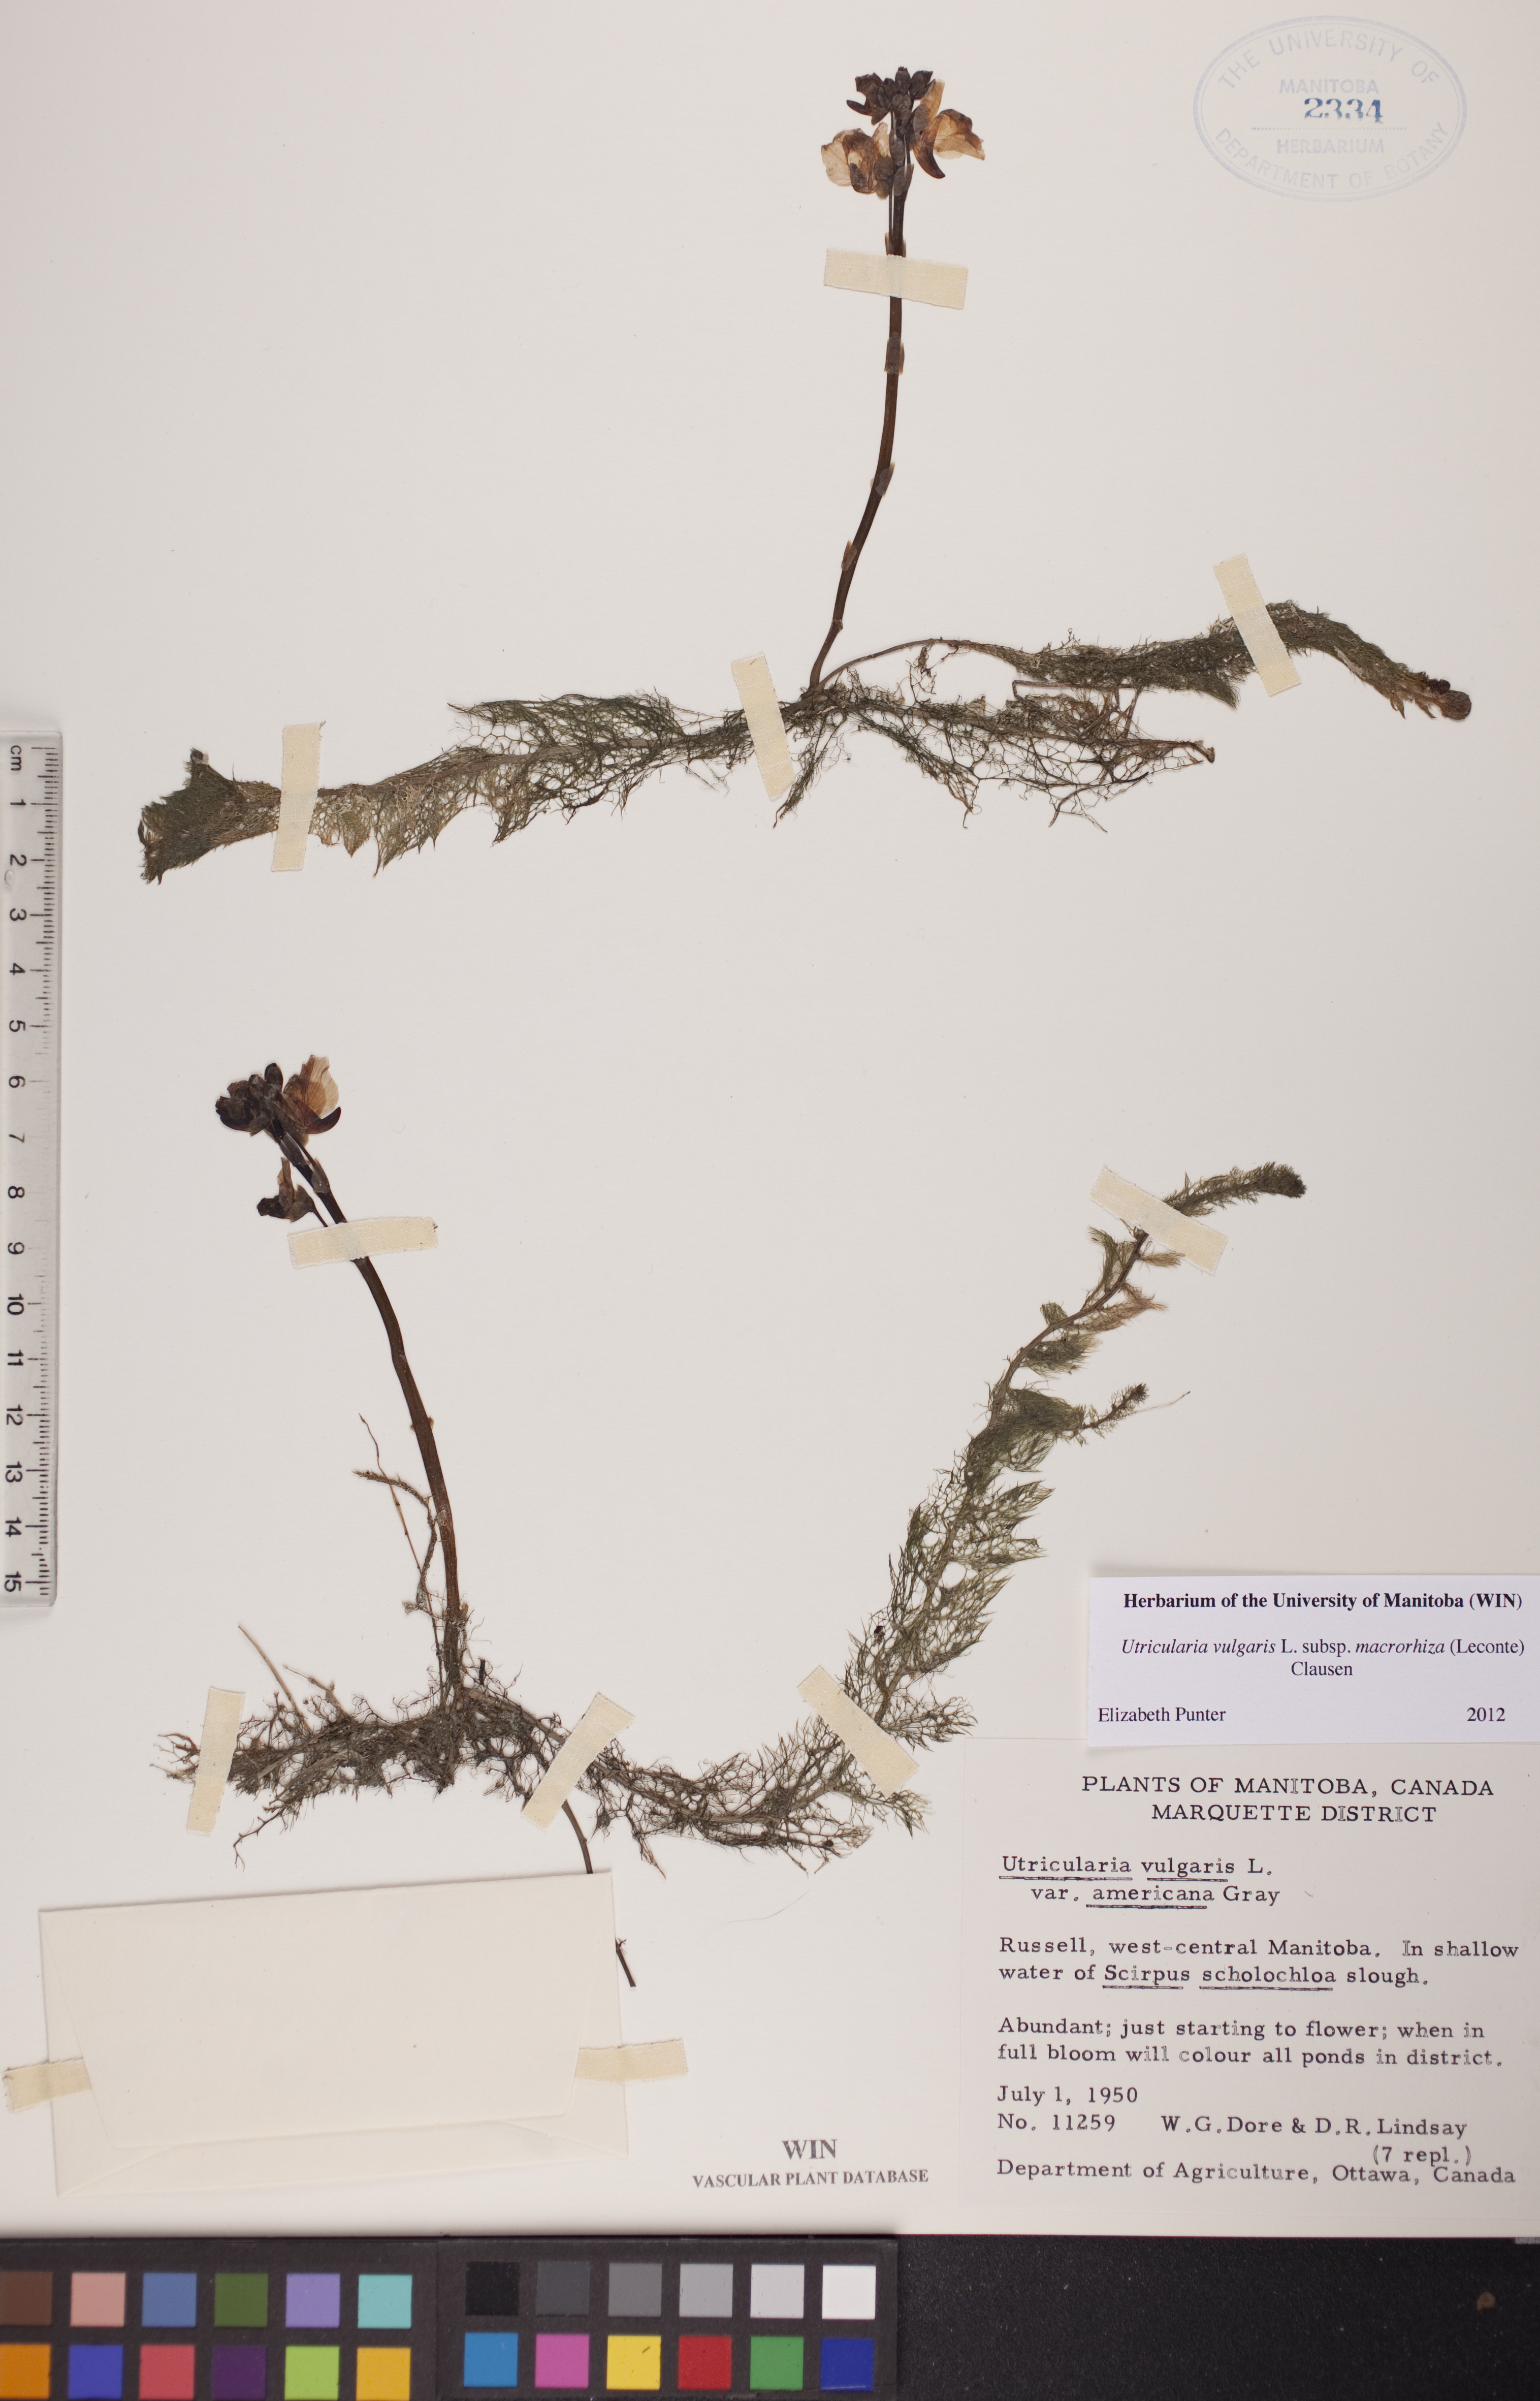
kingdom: Plantae
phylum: Tracheophyta
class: Magnoliopsida
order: Lamiales
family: Lentibulariaceae
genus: Utricularia
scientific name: Utricularia macrorhiza
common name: Common bladderwort
